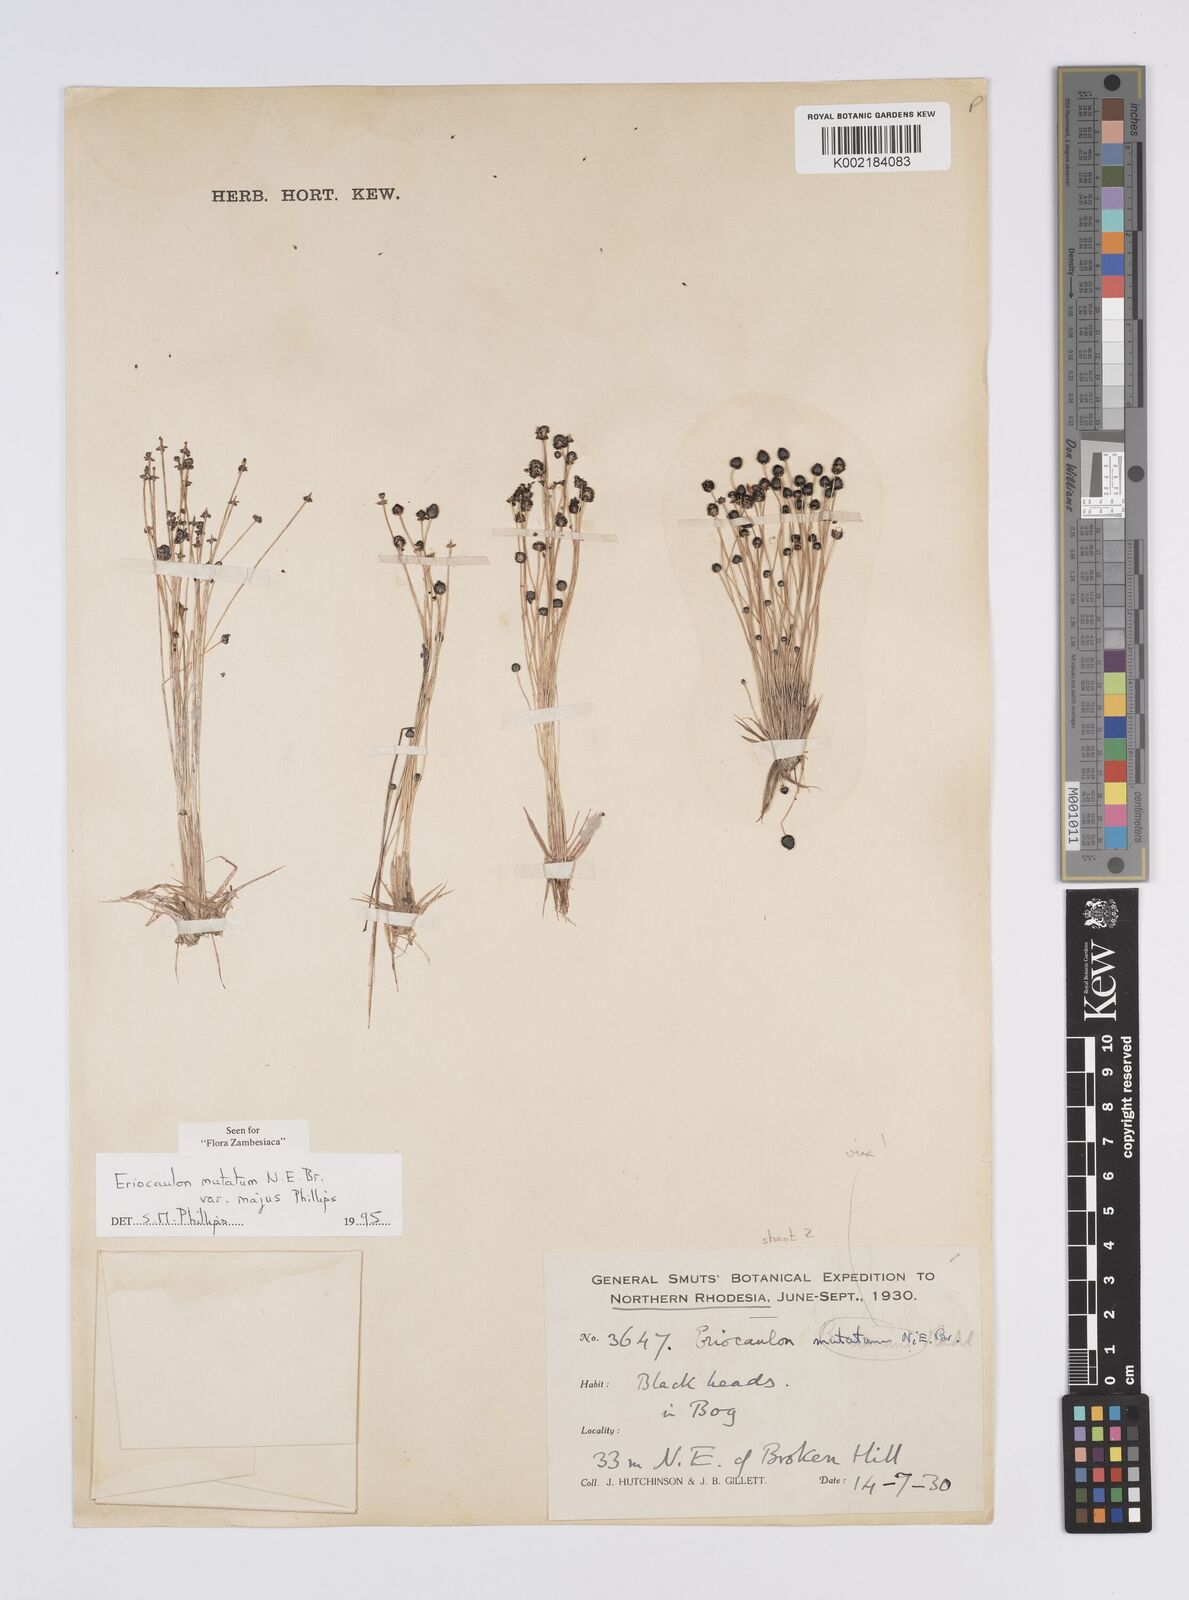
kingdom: Plantae
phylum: Tracheophyta
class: Liliopsida
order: Poales
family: Eriocaulaceae
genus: Eriocaulon
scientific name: Eriocaulon mutatum
